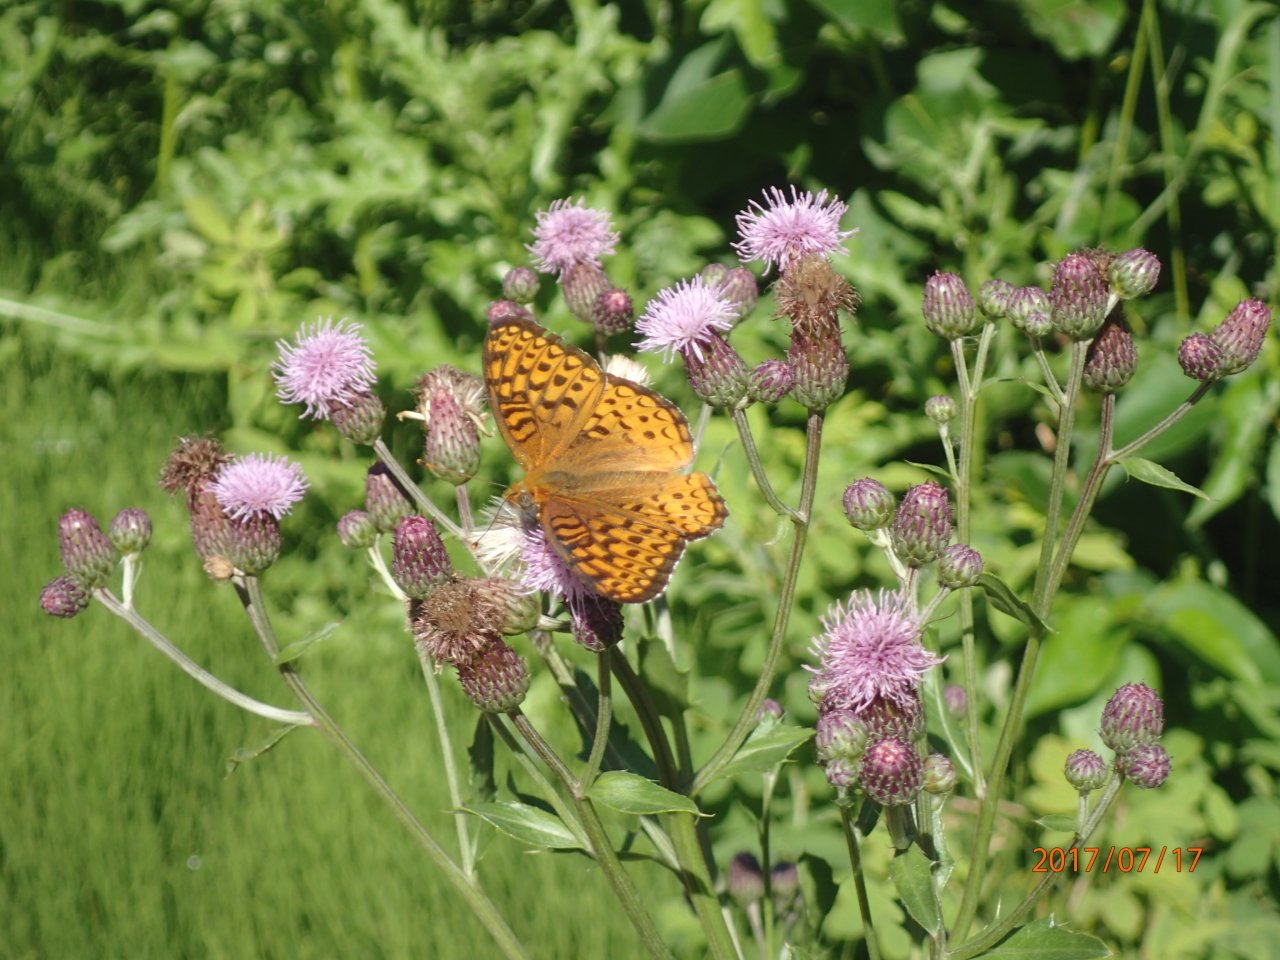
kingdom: Animalia
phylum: Arthropoda
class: Insecta
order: Lepidoptera
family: Nymphalidae
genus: Speyeria
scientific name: Speyeria atlantis
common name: Atlantis Fritillary
